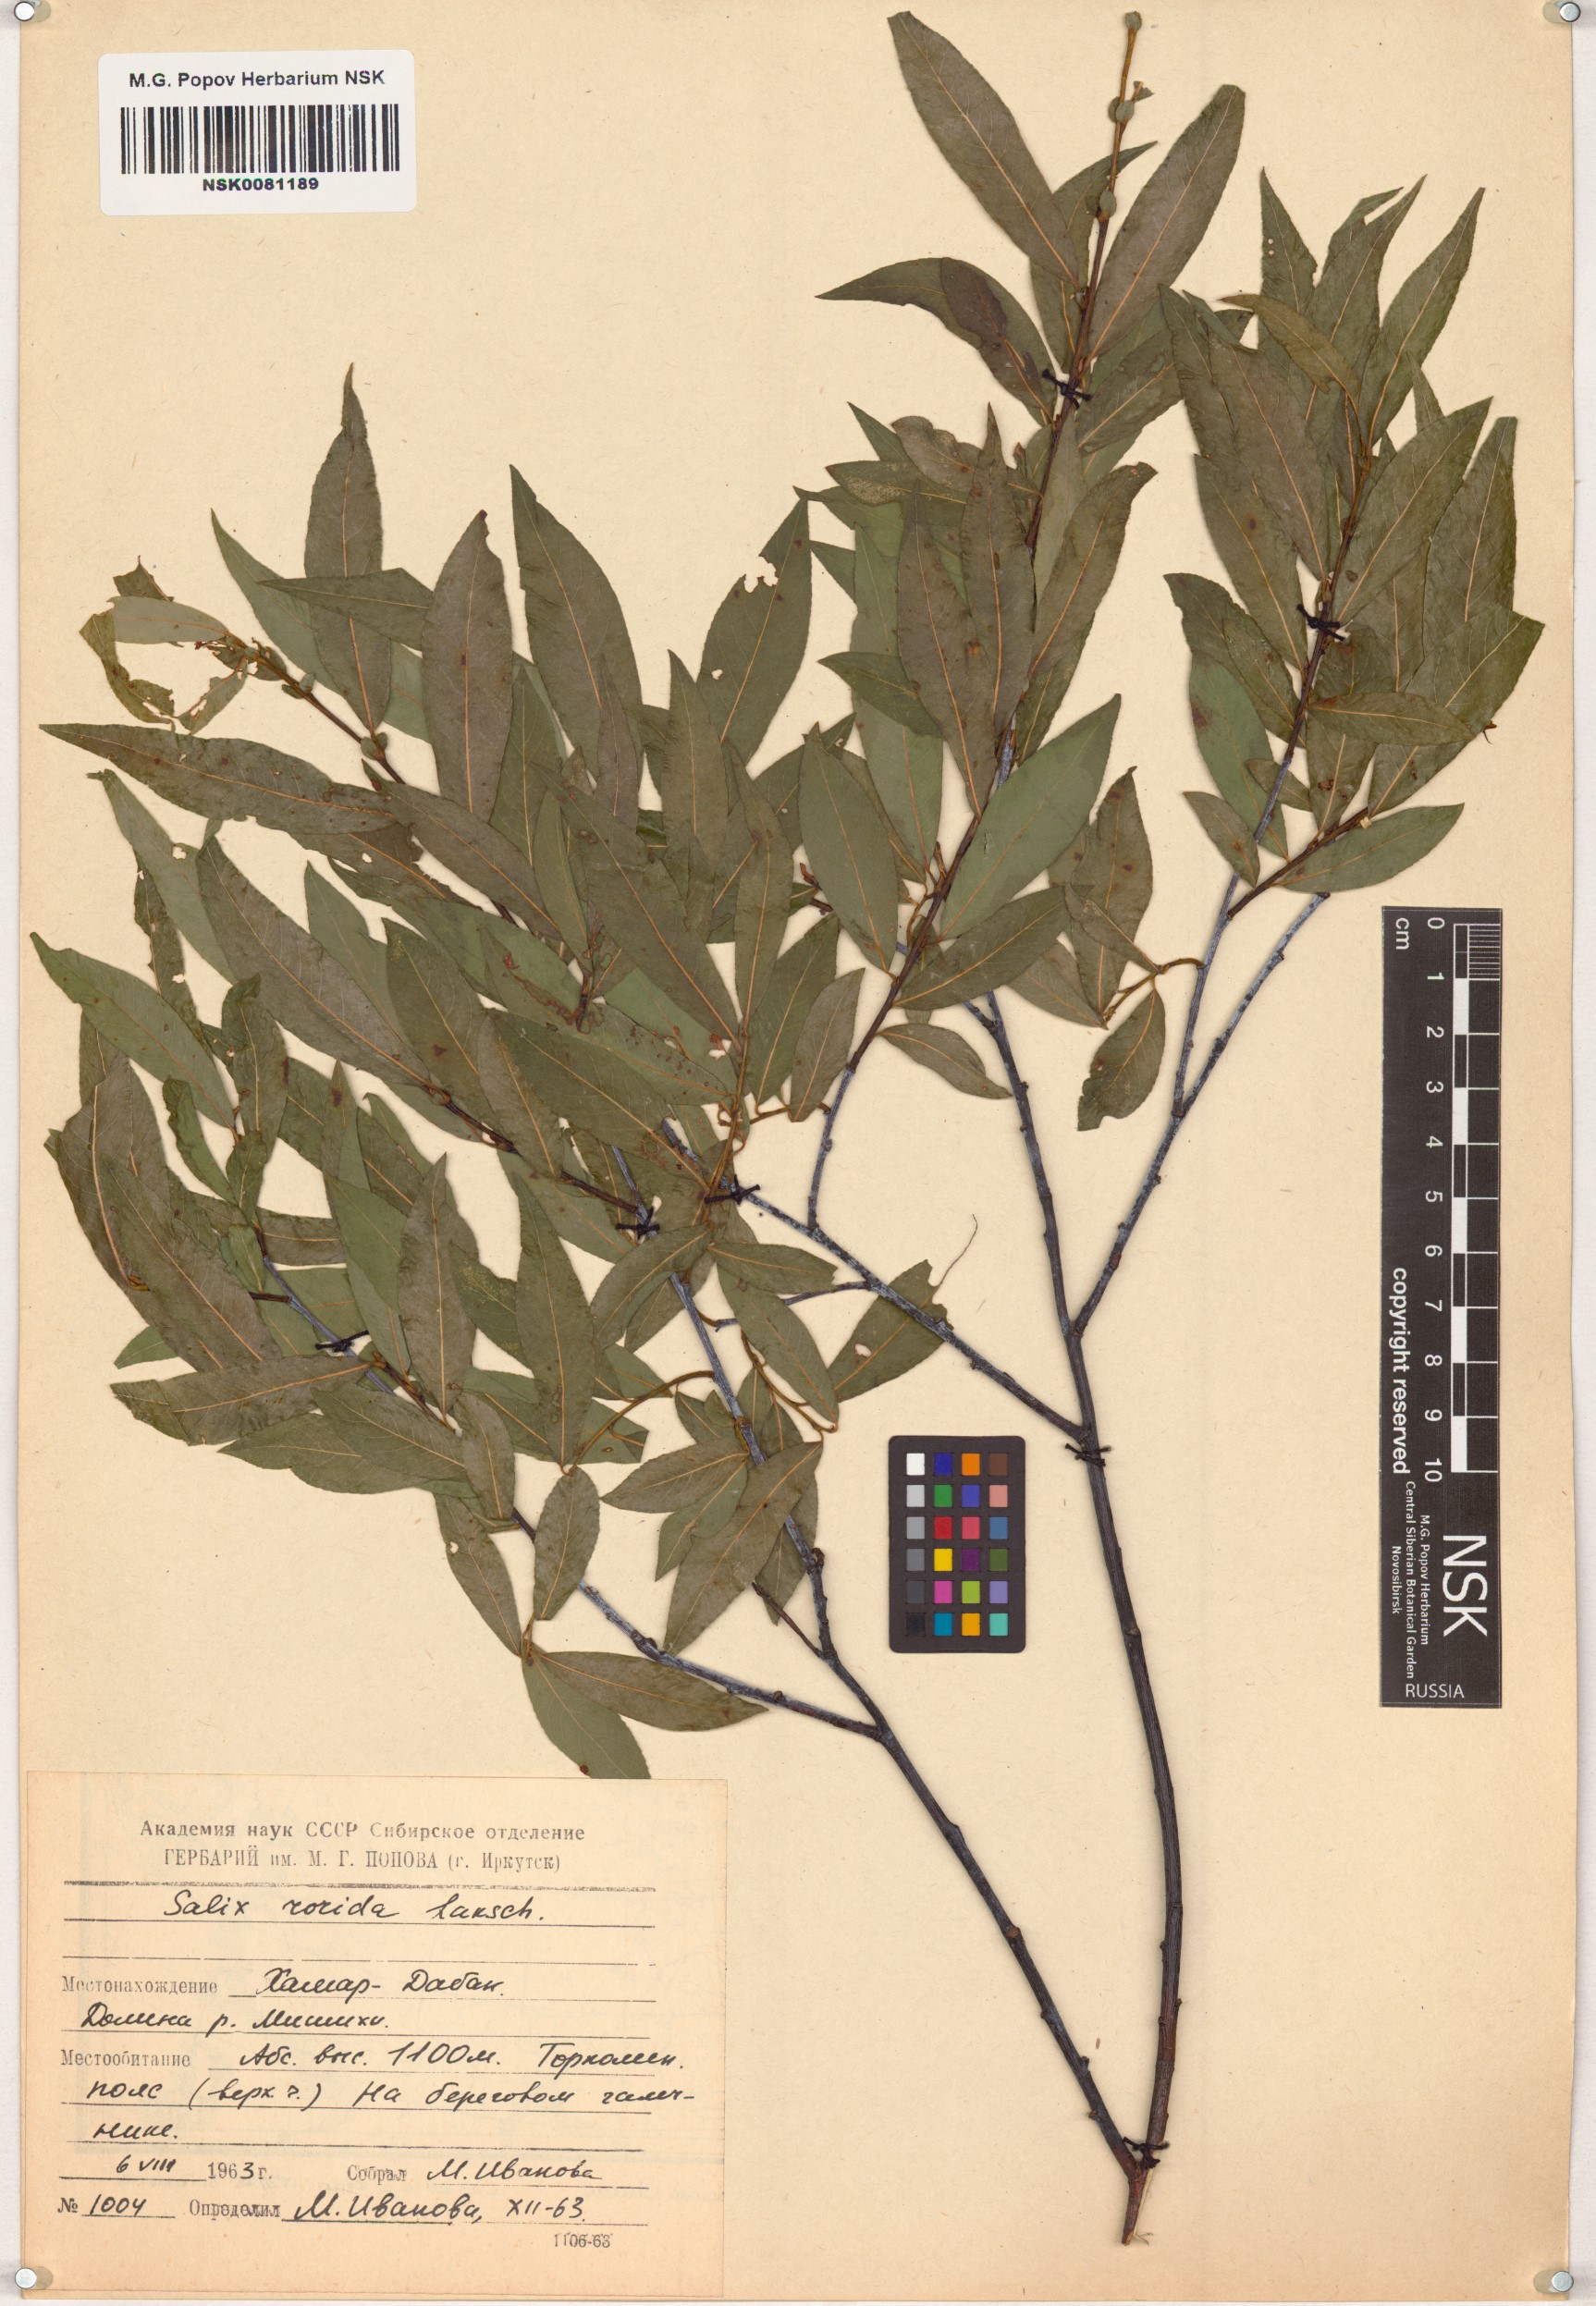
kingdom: Plantae
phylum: Tracheophyta
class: Magnoliopsida
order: Malpighiales
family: Salicaceae
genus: Salix
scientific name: Salix rorida
